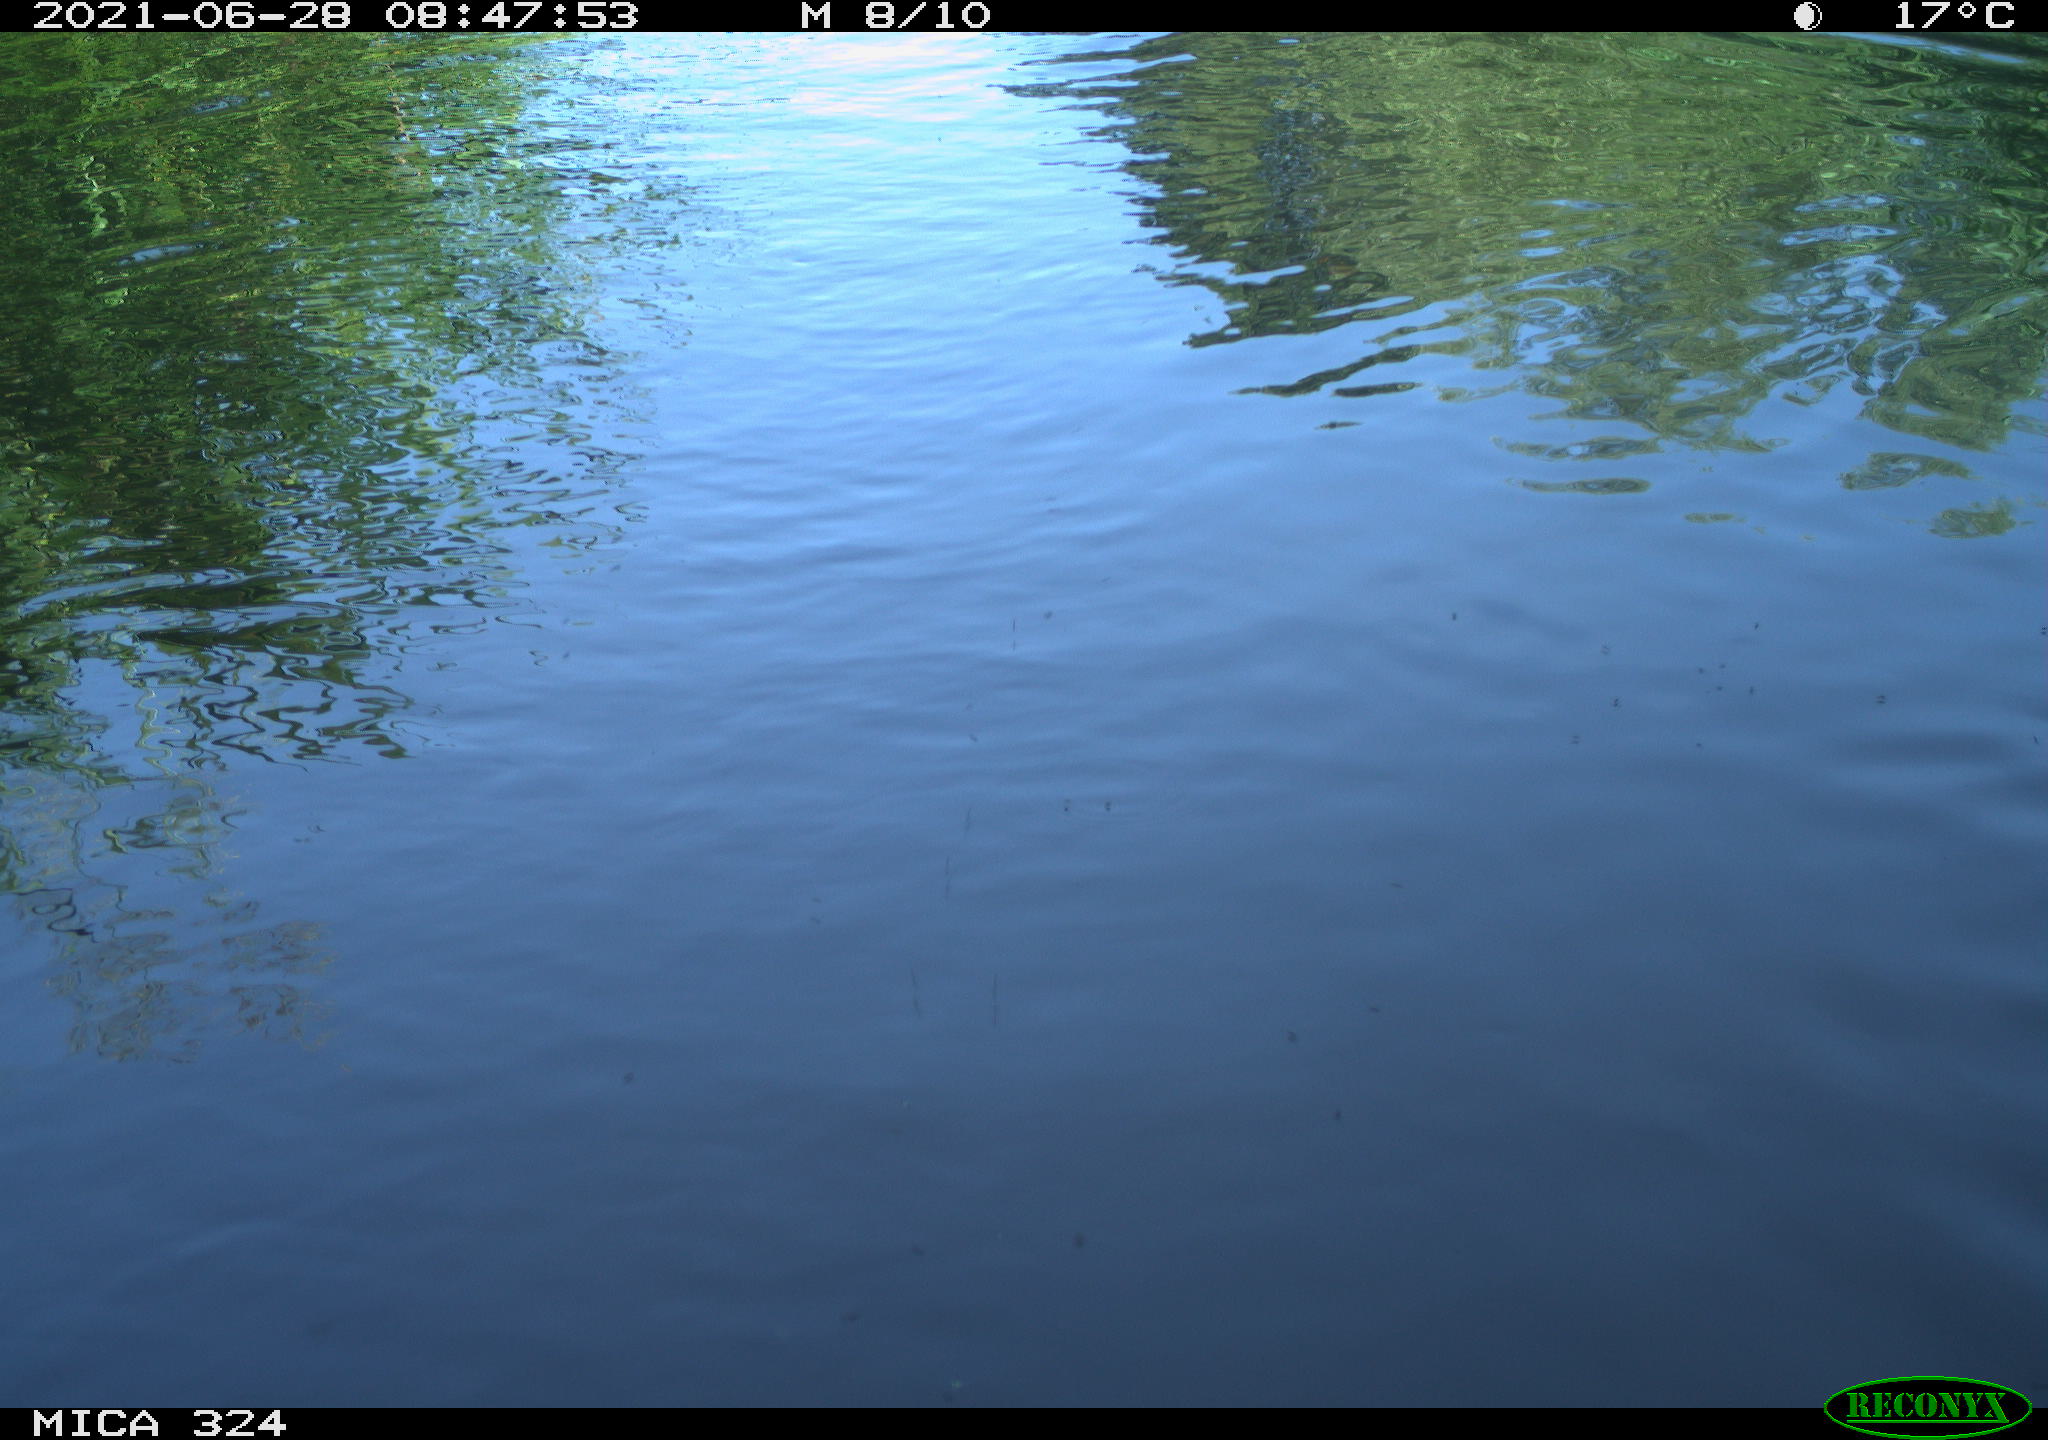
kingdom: Animalia
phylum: Chordata
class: Aves
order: Gruiformes
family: Rallidae
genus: Gallinula
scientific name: Gallinula chloropus
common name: Common moorhen
